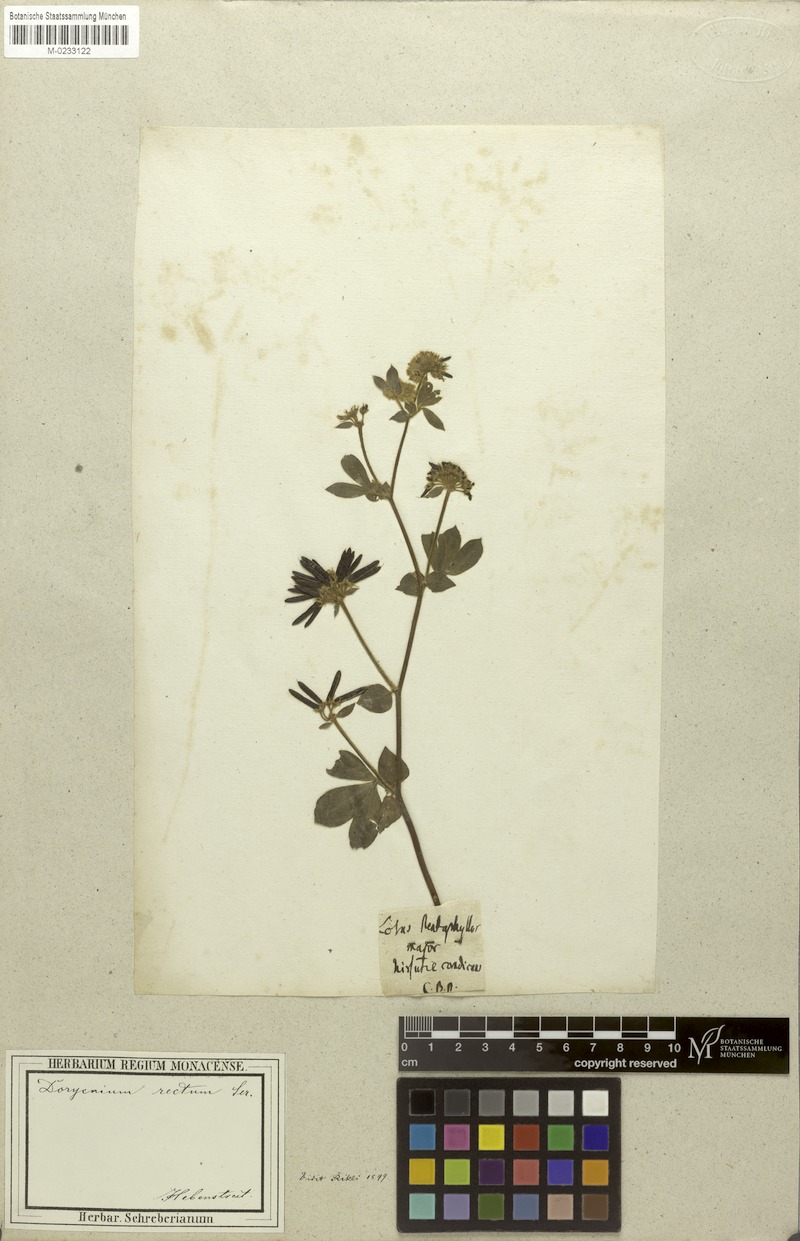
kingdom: Plantae
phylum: Tracheophyta
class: Magnoliopsida
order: Fabales
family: Fabaceae
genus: Lotus
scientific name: Lotus rectus
